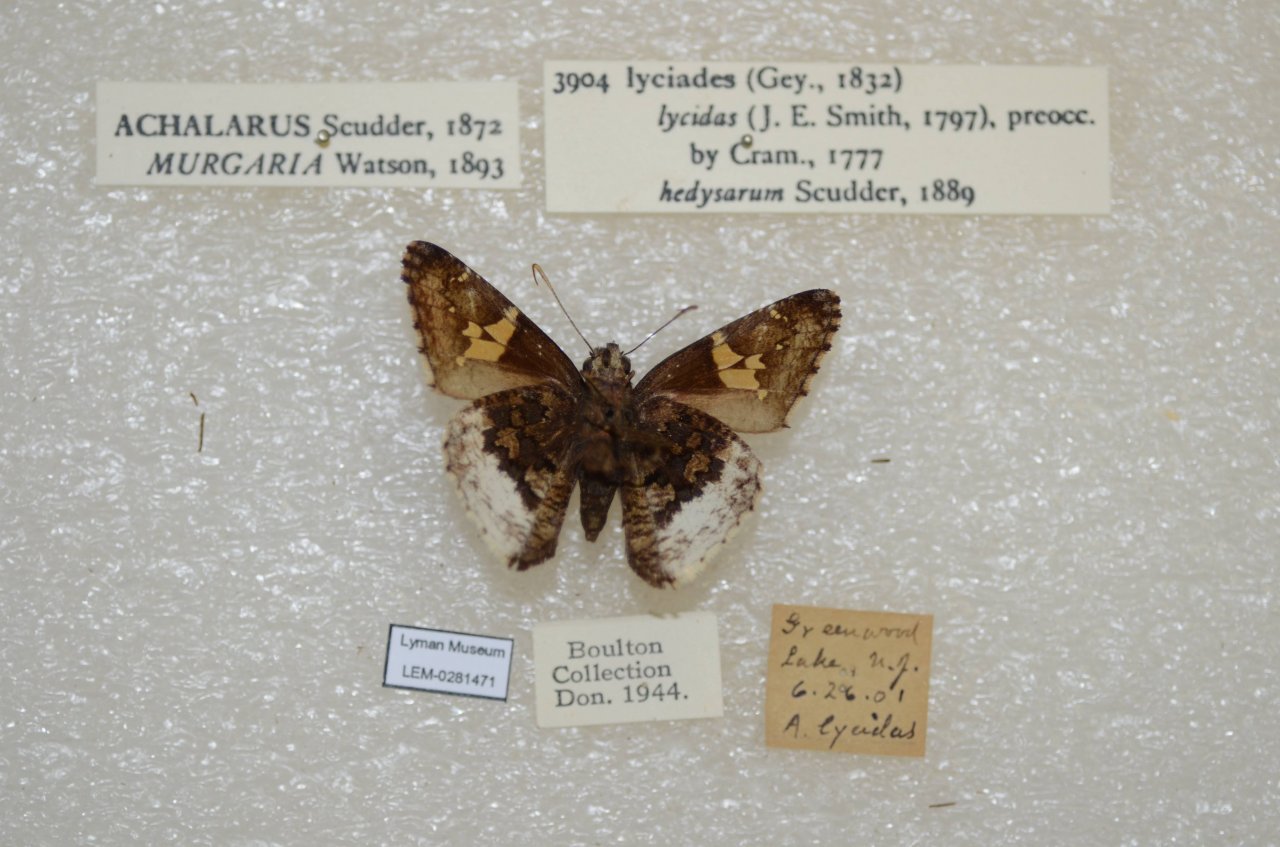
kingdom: Animalia
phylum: Arthropoda
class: Insecta
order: Lepidoptera
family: Hesperiidae
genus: Achalarus
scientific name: Achalarus lyciades
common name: Hoary Edge
